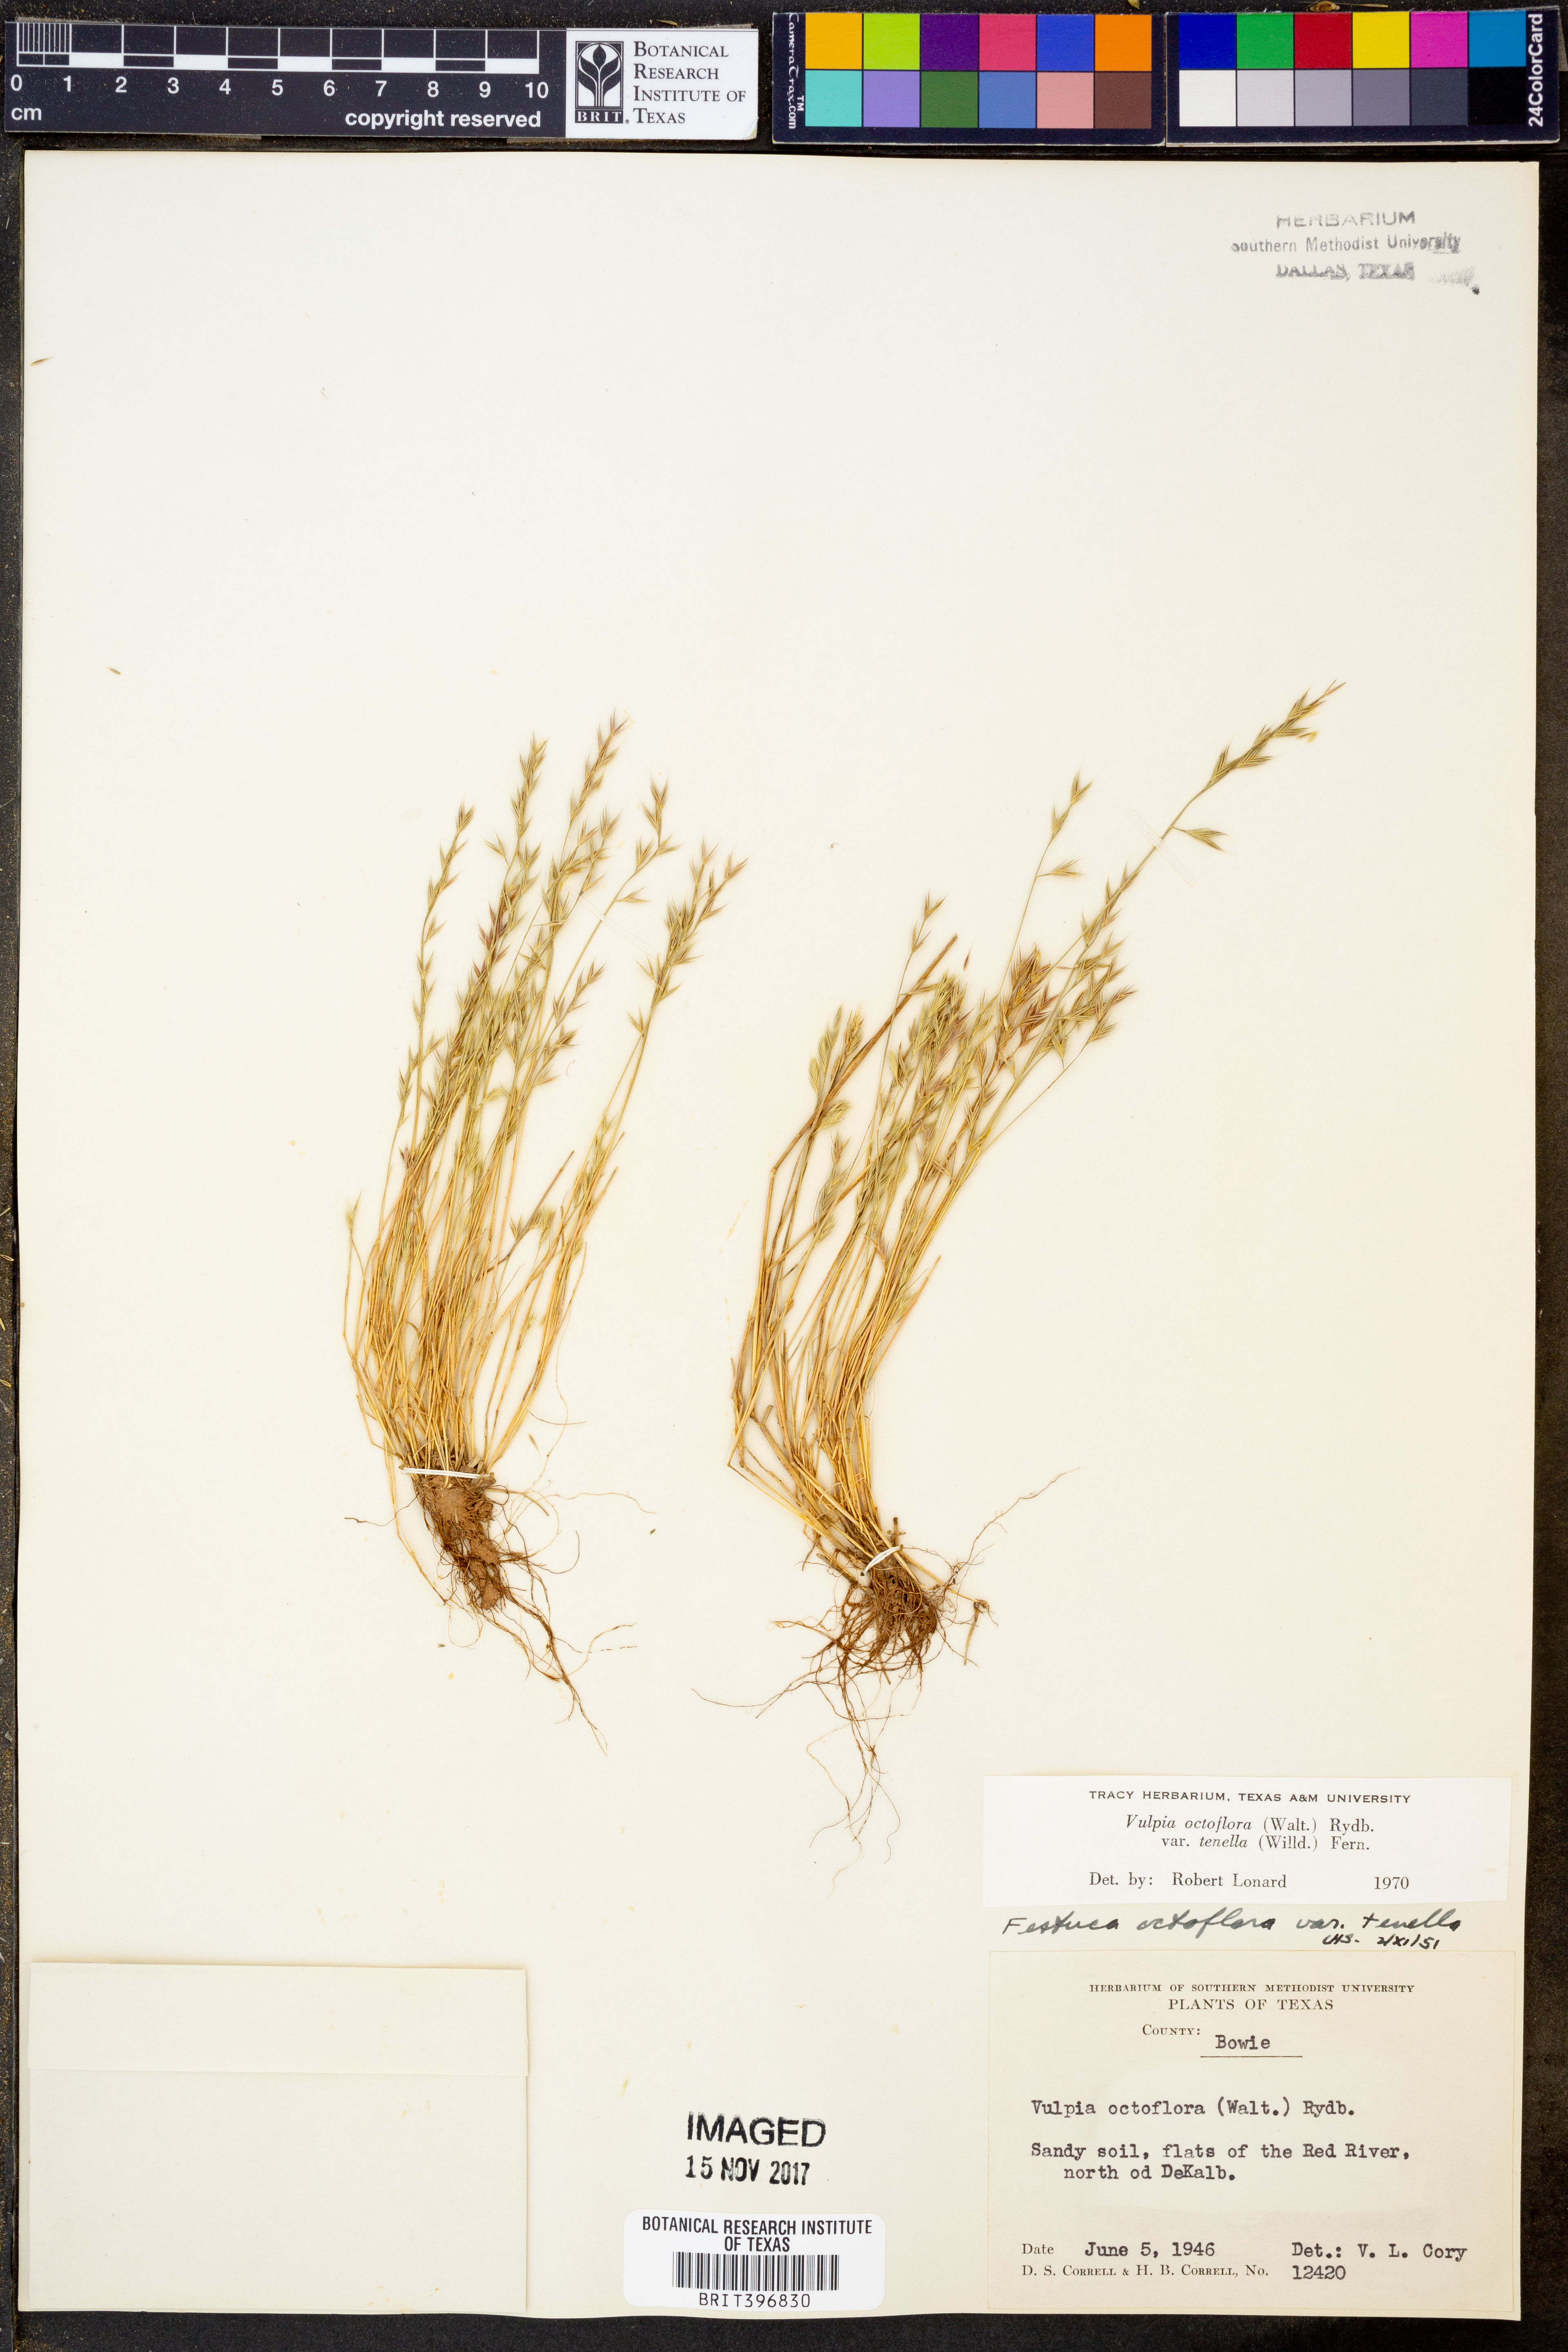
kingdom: Plantae
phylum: Tracheophyta
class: Liliopsida
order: Poales
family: Poaceae
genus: Festuca
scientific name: Festuca octoflora
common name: Sixweeks grass
